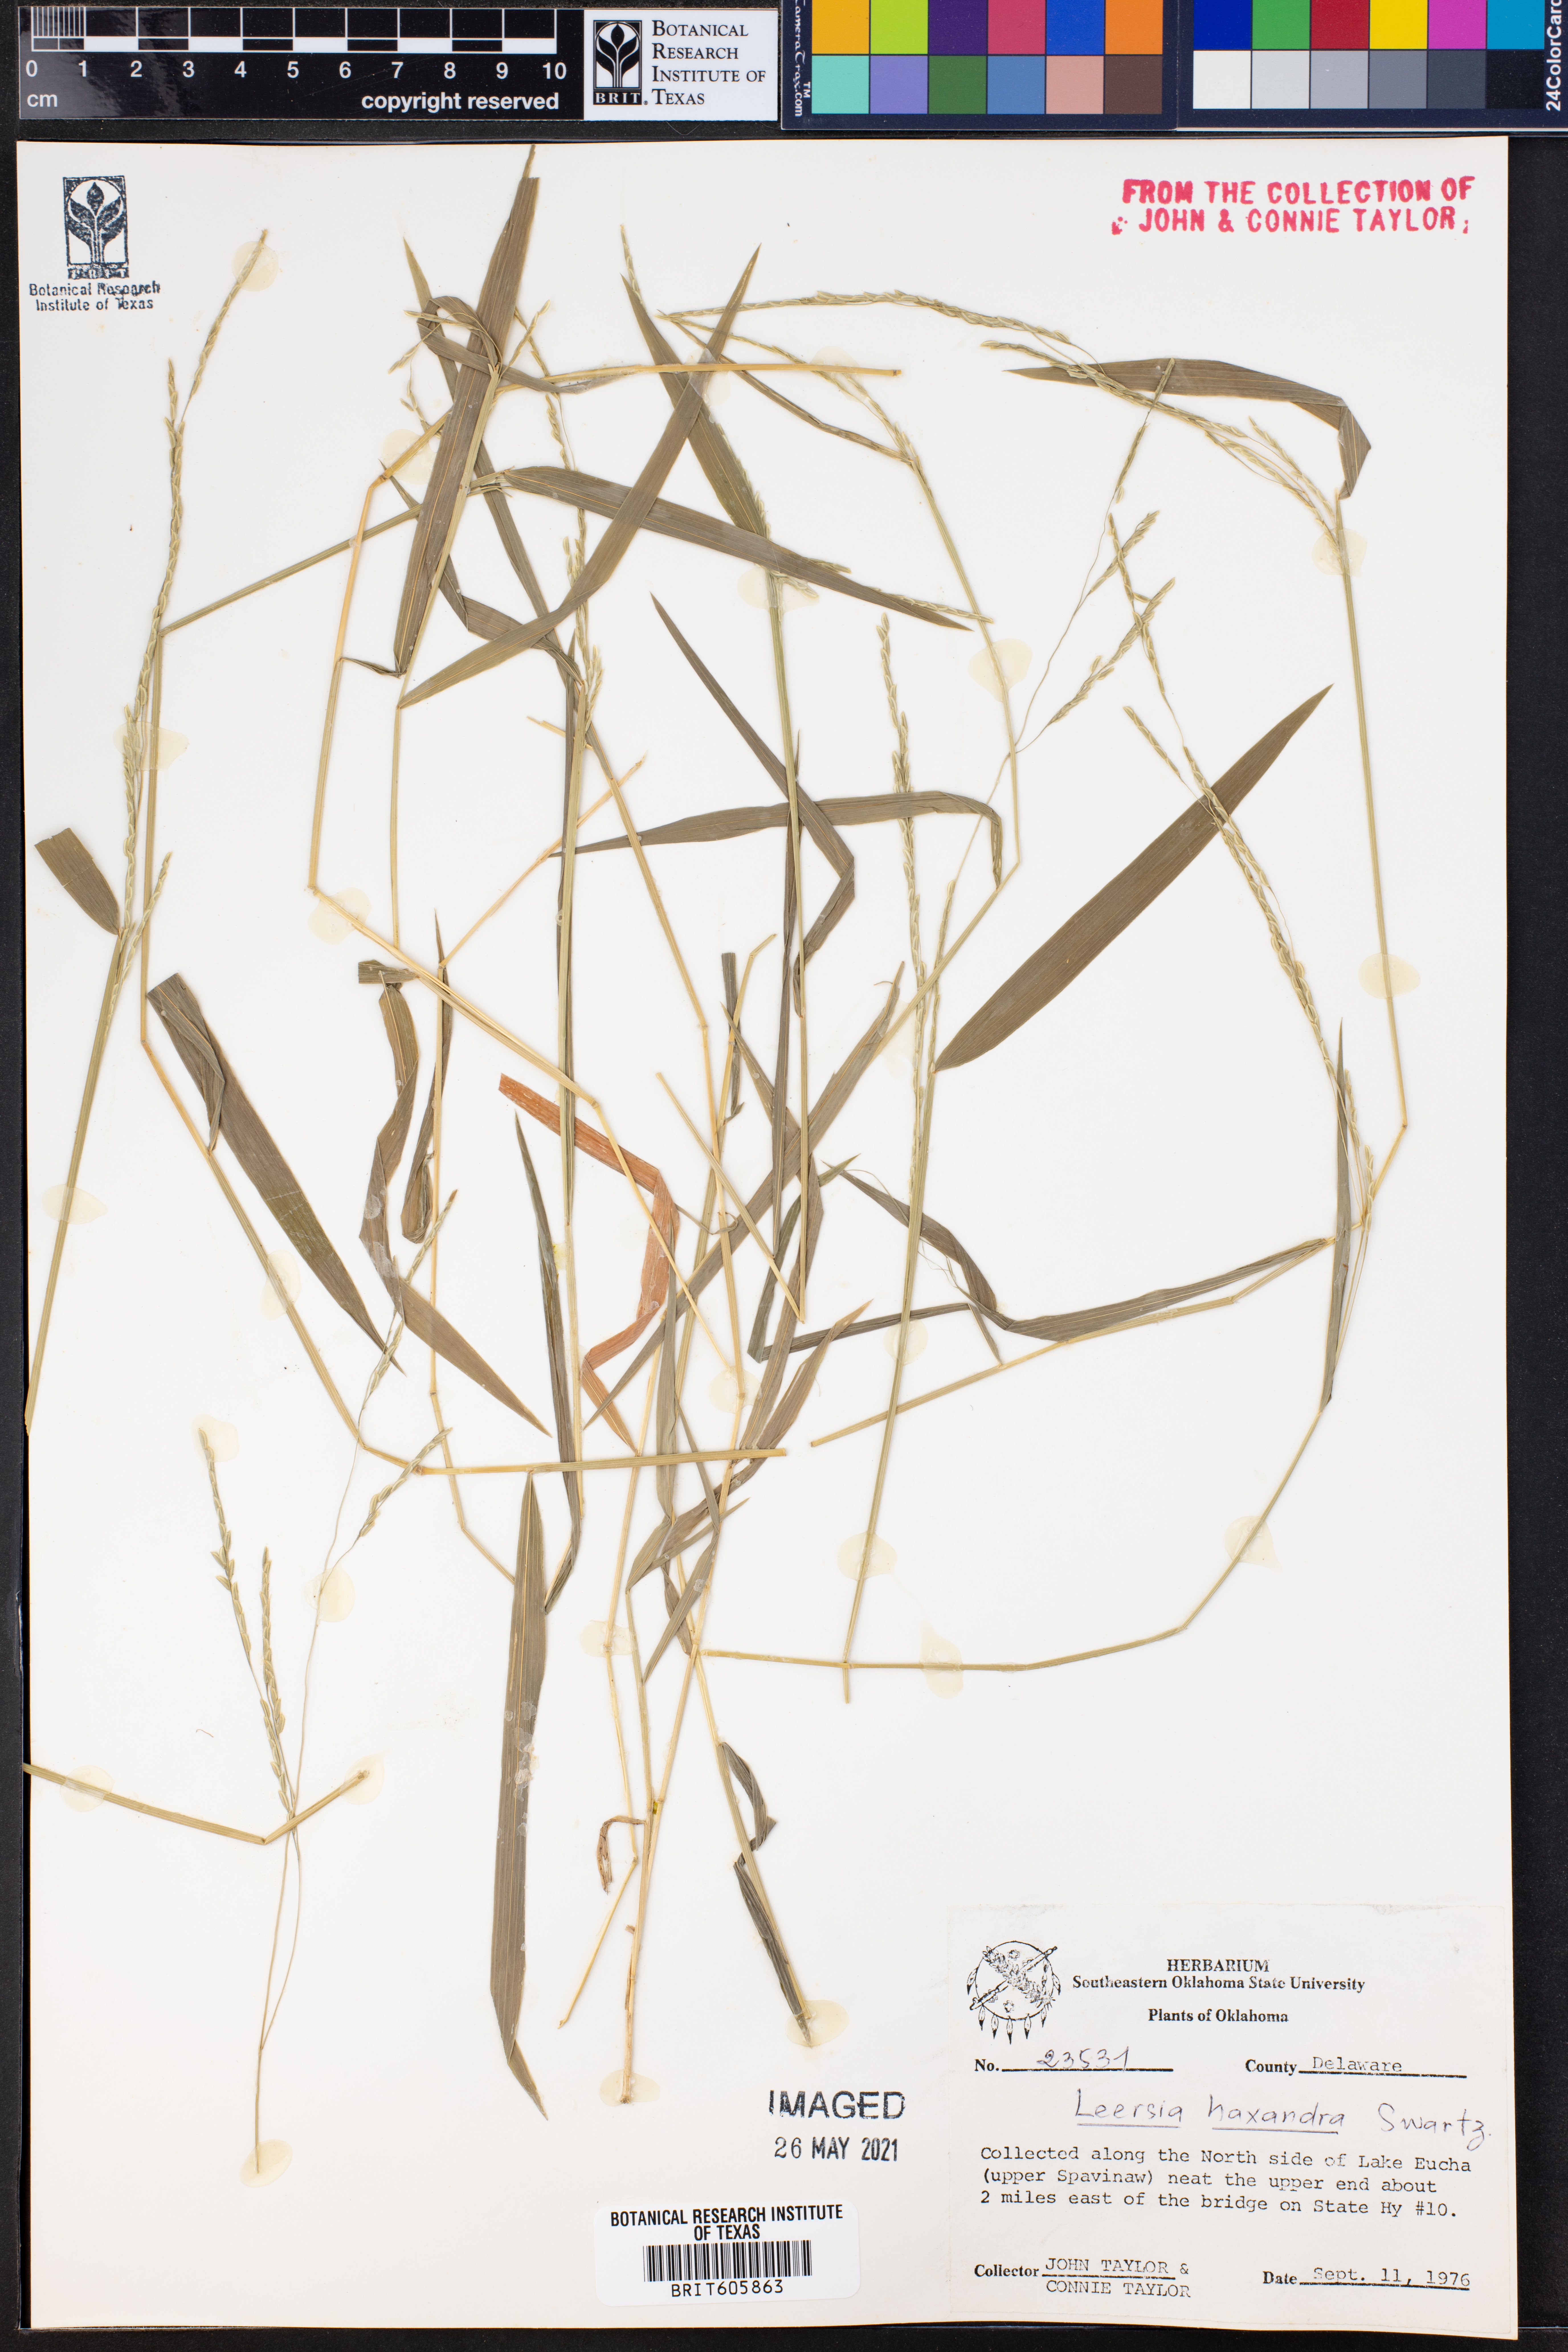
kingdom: Plantae
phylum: Tracheophyta
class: Liliopsida
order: Poales
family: Poaceae
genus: Leersia
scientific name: Leersia hexandra
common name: Southern cut grass
